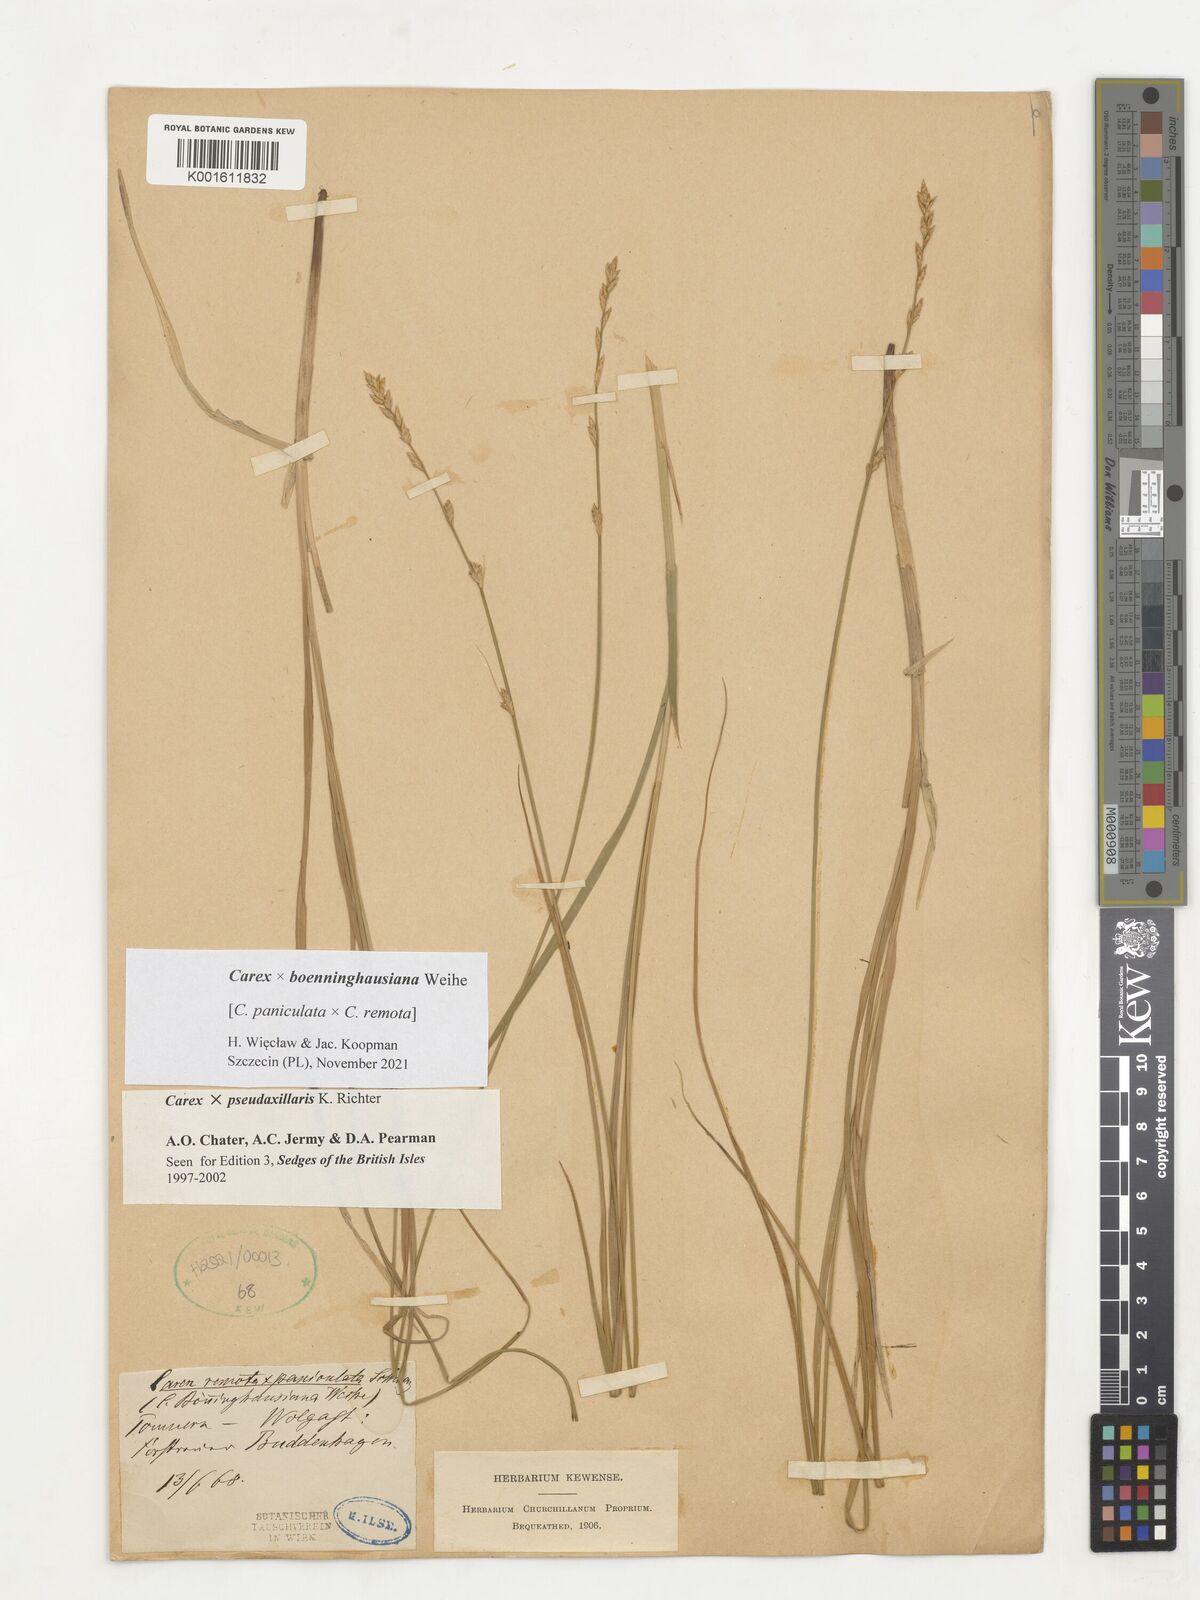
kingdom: Plantae
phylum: Tracheophyta
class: Liliopsida
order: Poales
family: Cyperaceae
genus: Carex
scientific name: Carex boenninghausiana
